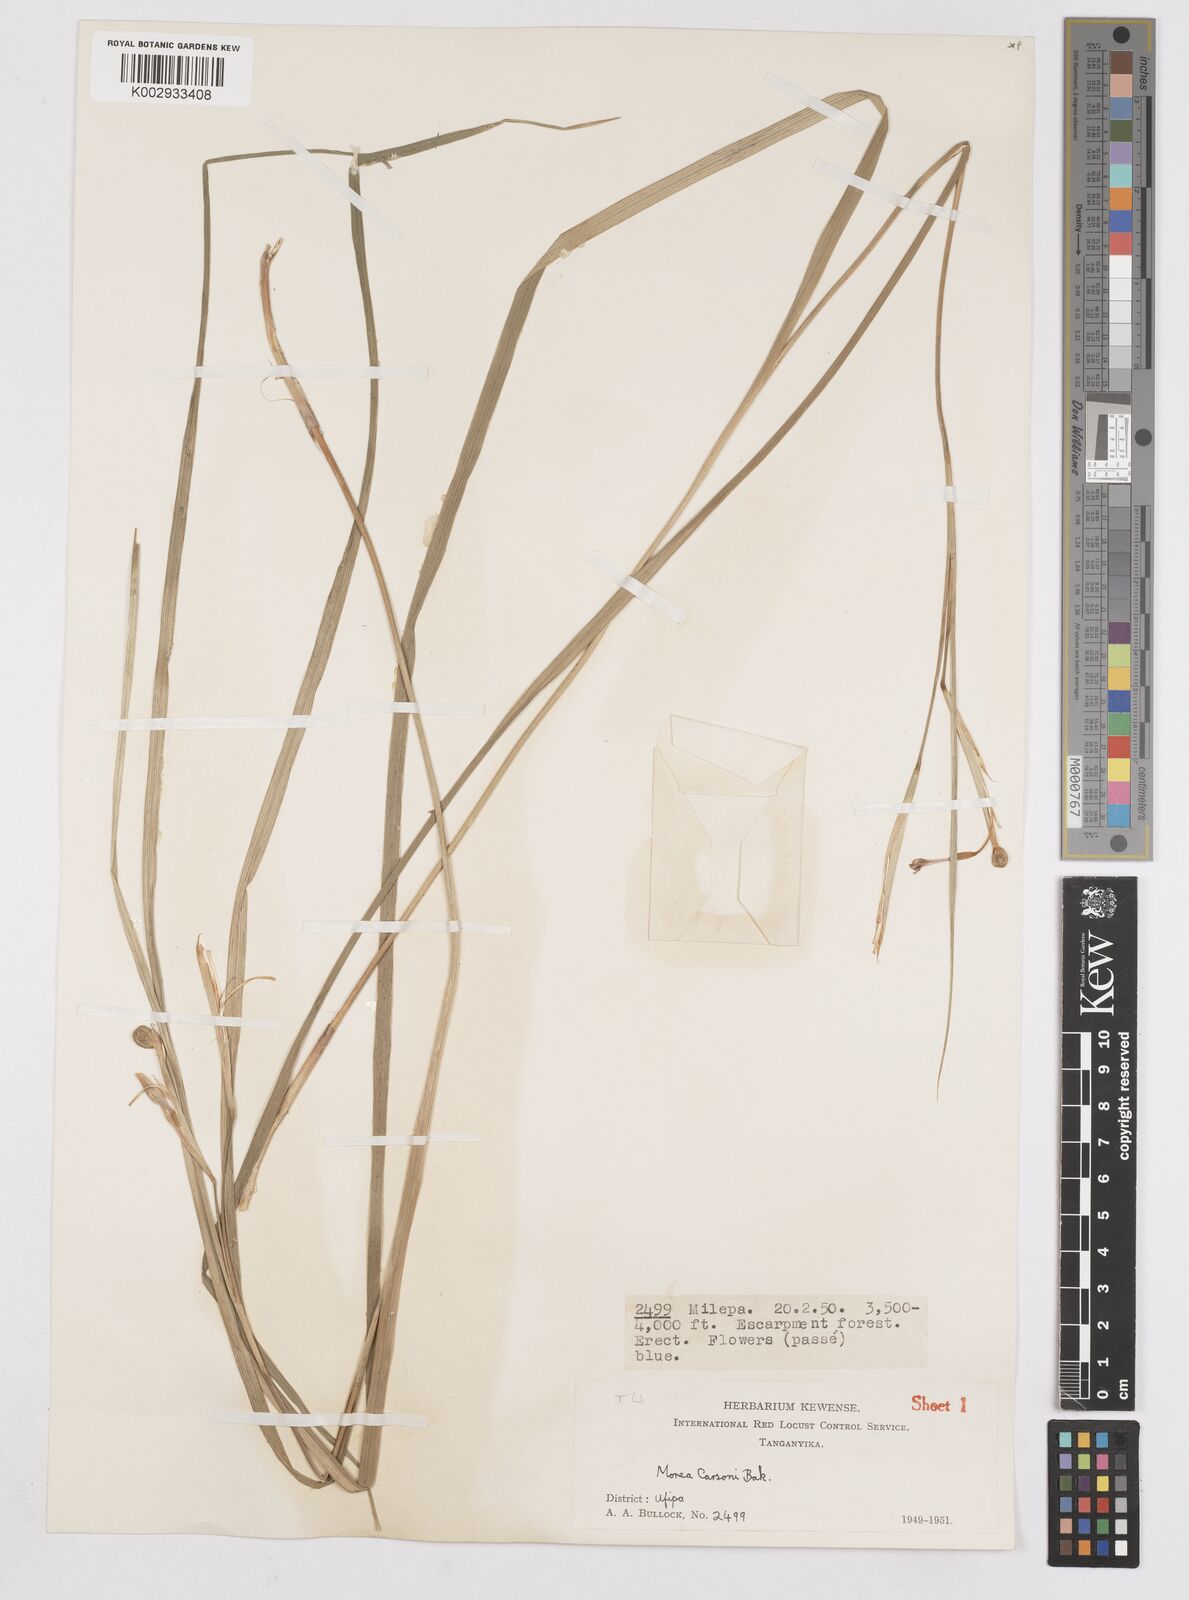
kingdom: Plantae
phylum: Tracheophyta
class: Liliopsida
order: Asparagales
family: Iridaceae
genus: Moraea
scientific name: Moraea carsonii
